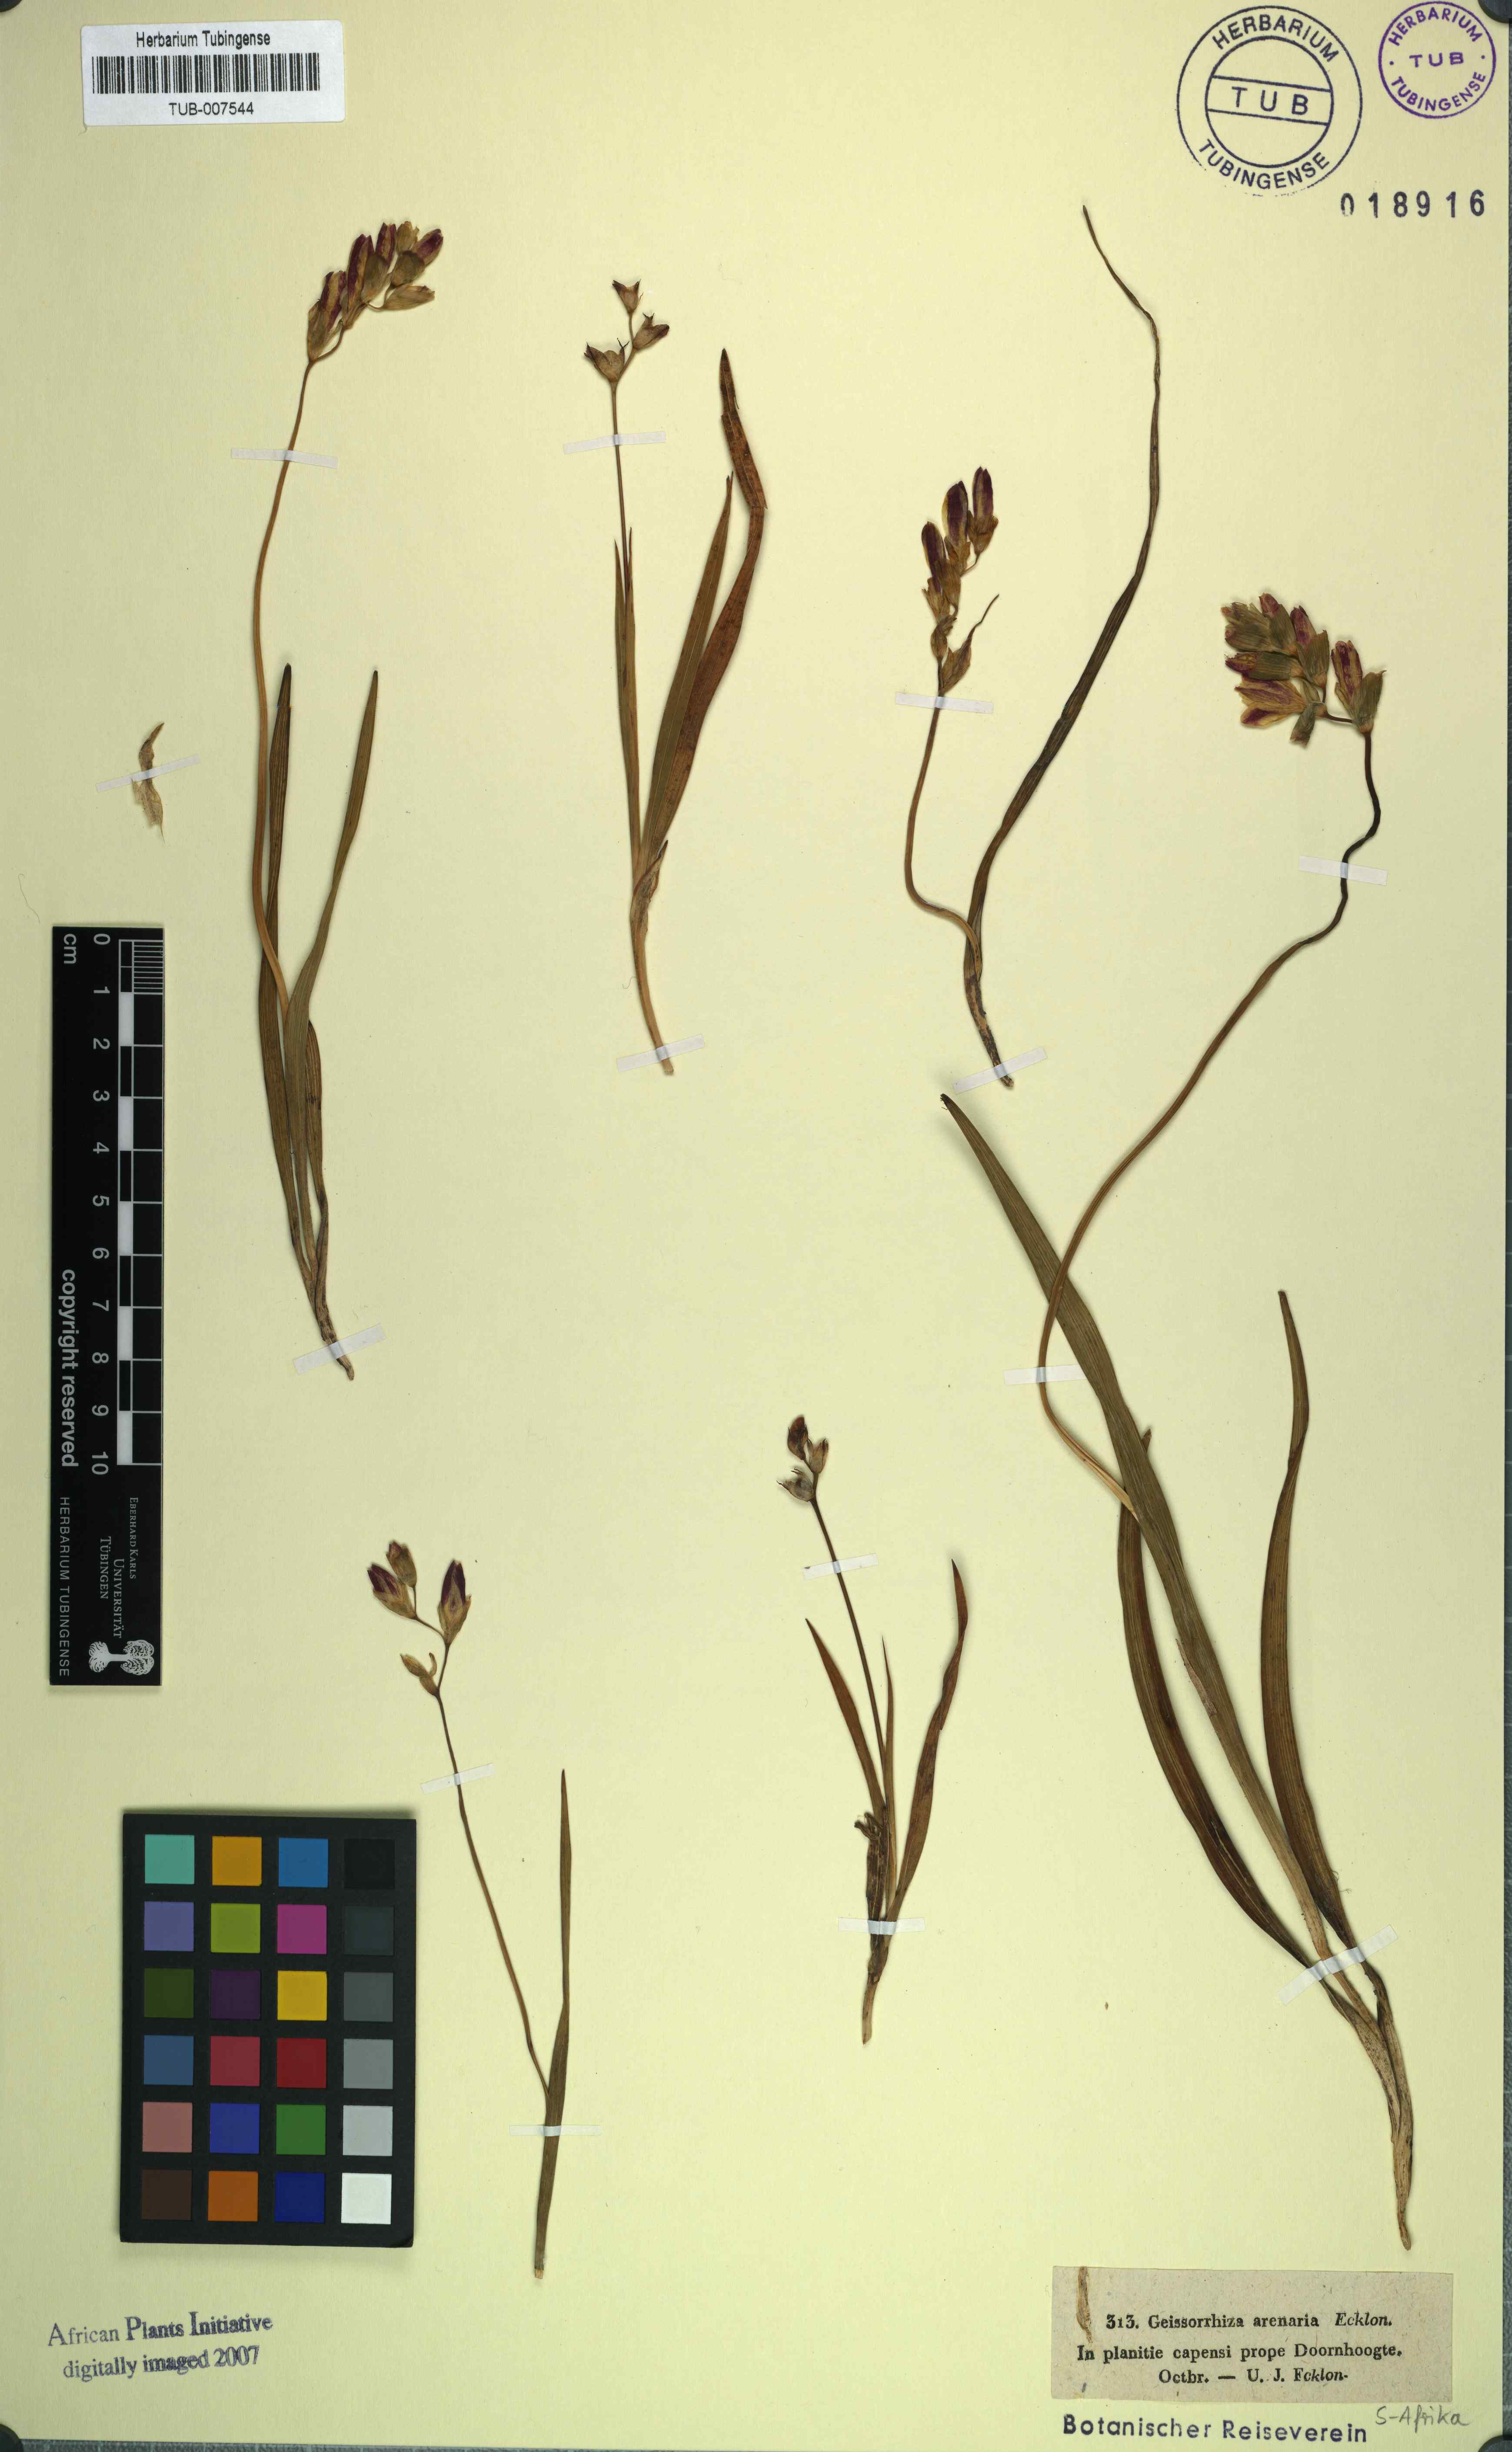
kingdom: Plantae
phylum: Tracheophyta
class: Liliopsida
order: Asparagales
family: Iridaceae
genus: Geissorhiza
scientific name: Geissorhiza imbricata
